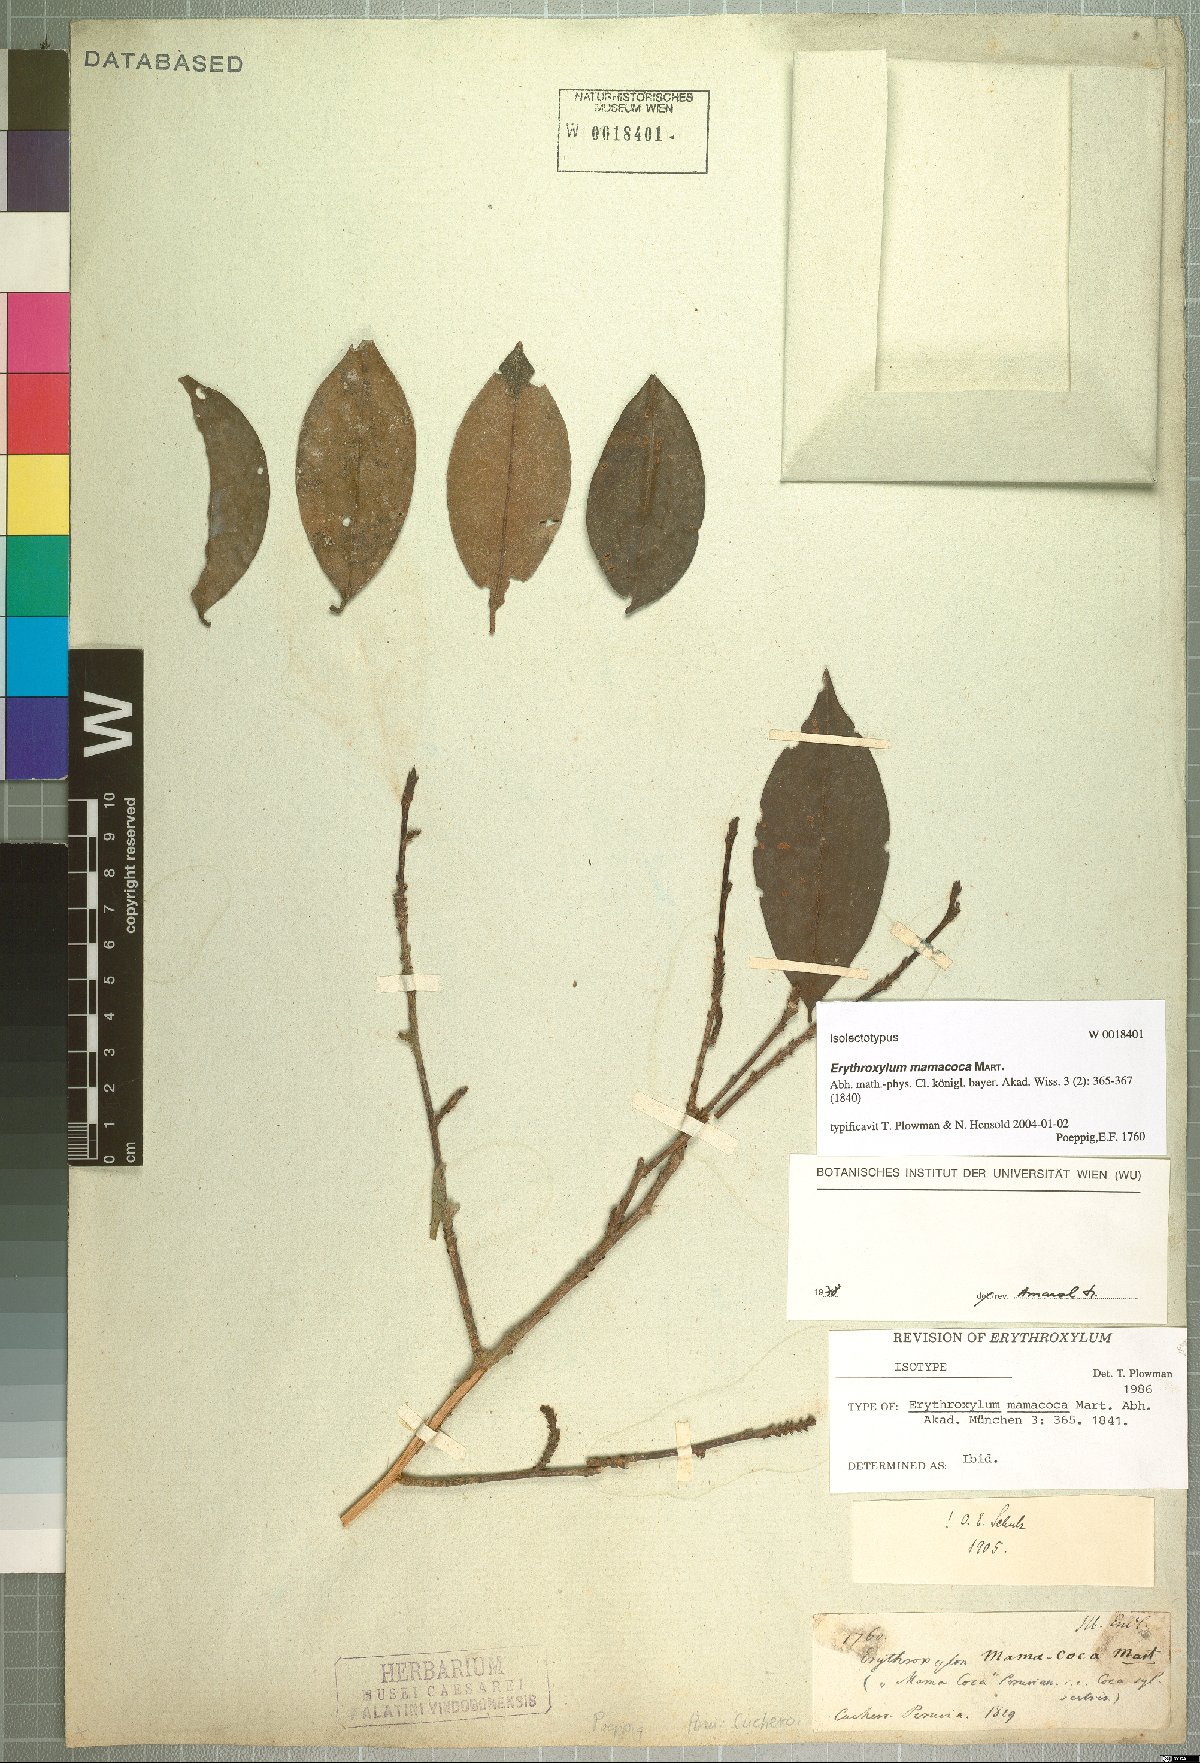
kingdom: Plantae
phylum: Tracheophyta
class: Magnoliopsida
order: Malpighiales
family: Erythroxylaceae
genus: Erythroxylum
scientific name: Erythroxylum mamacoca
